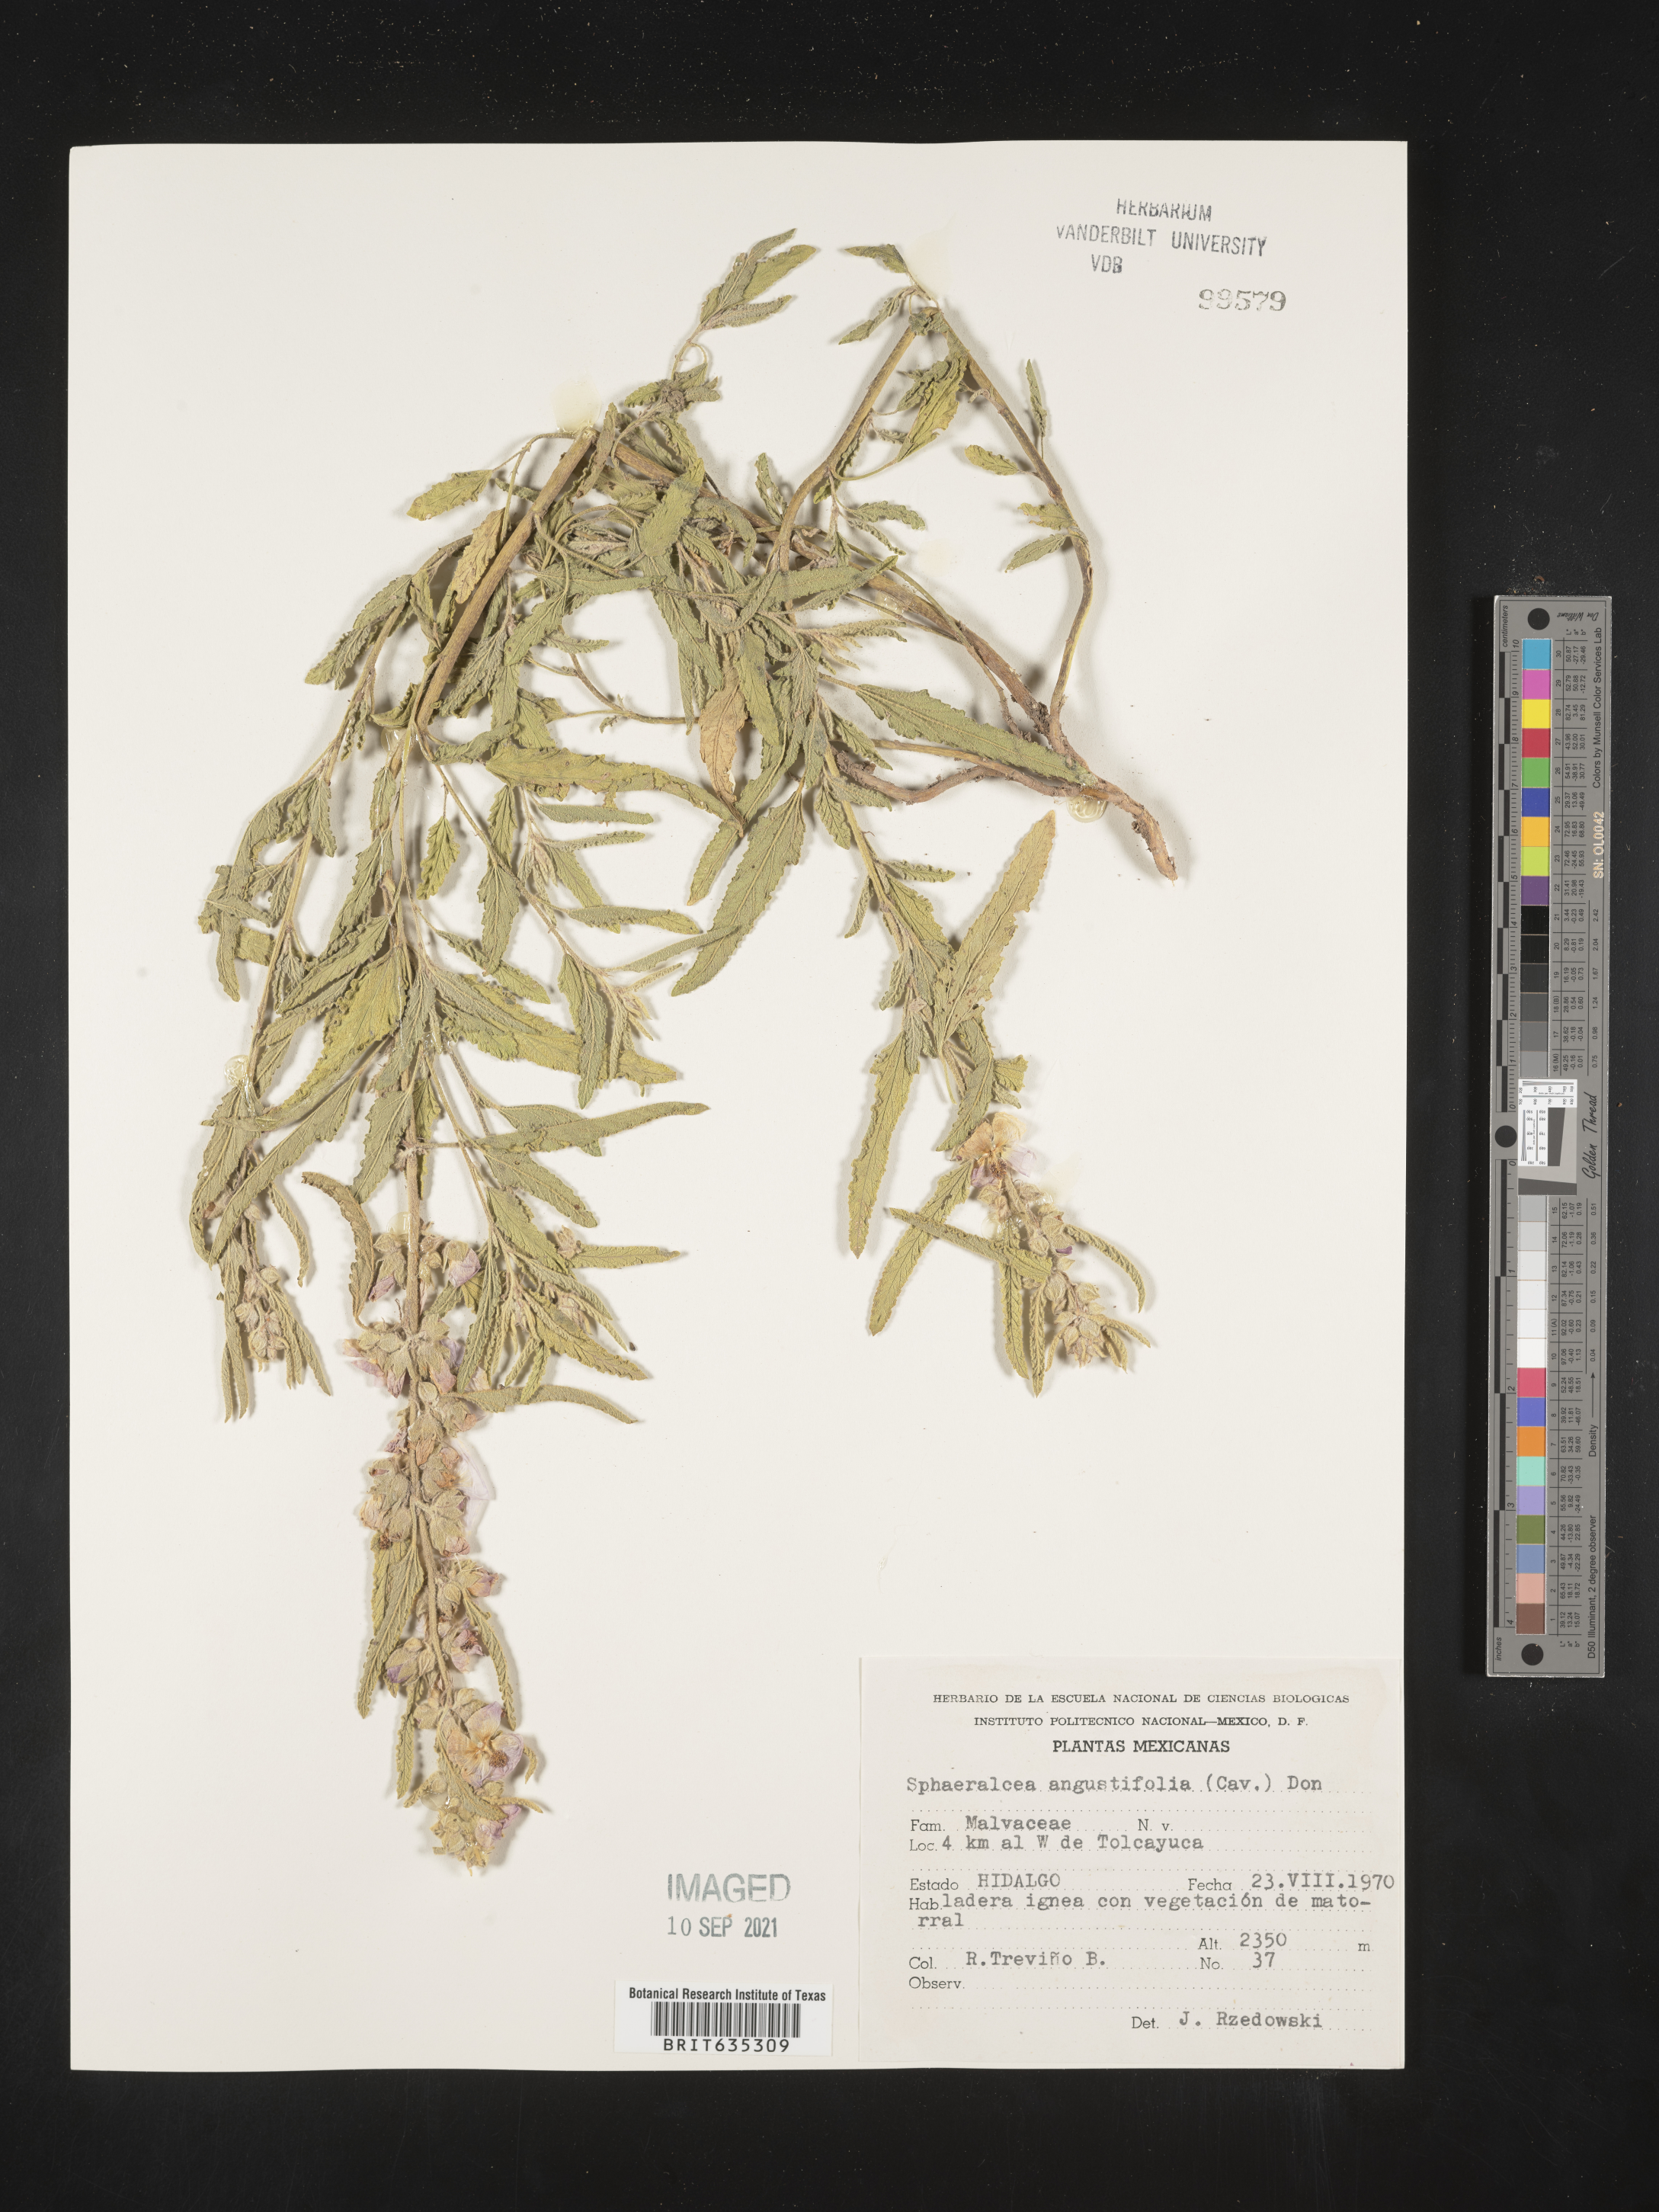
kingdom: Plantae
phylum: Tracheophyta
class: Magnoliopsida
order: Malvales
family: Malvaceae
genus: Sphaeralcea
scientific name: Sphaeralcea
